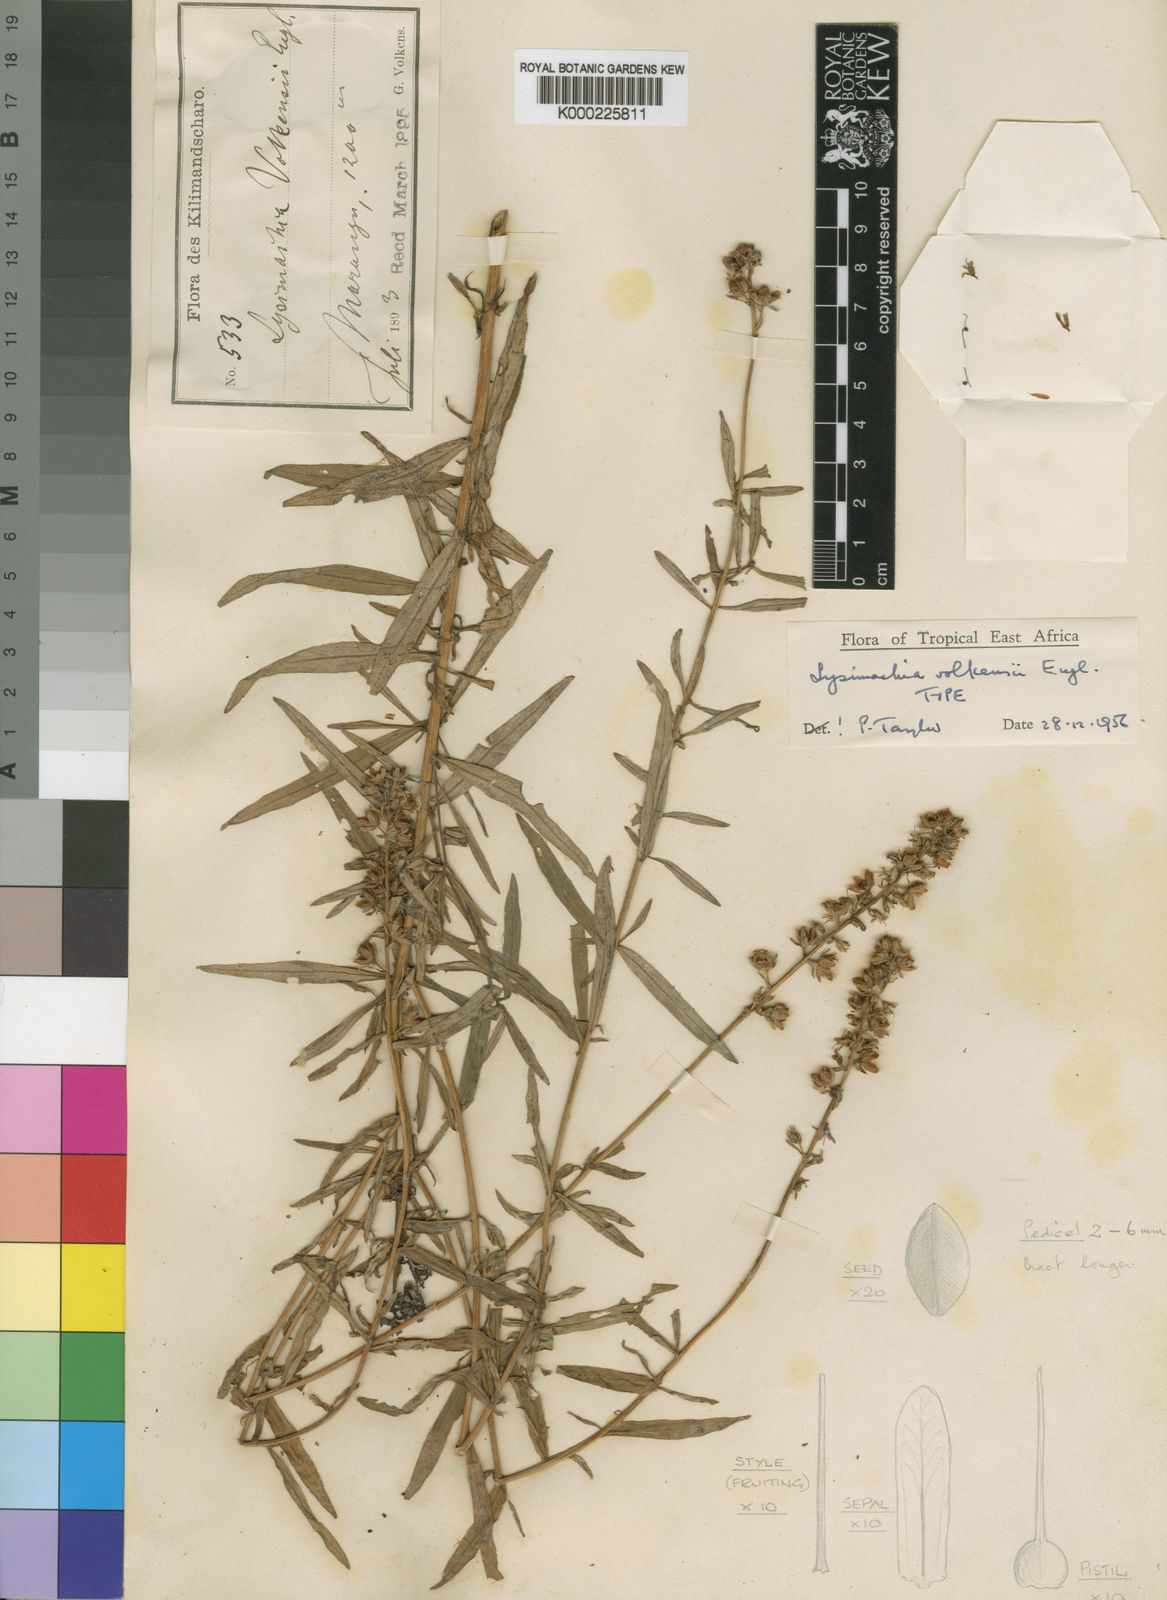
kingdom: Plantae
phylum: Tracheophyta
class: Magnoliopsida
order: Ericales
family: Primulaceae
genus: Lysimachia
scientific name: Lysimachia volkensii
